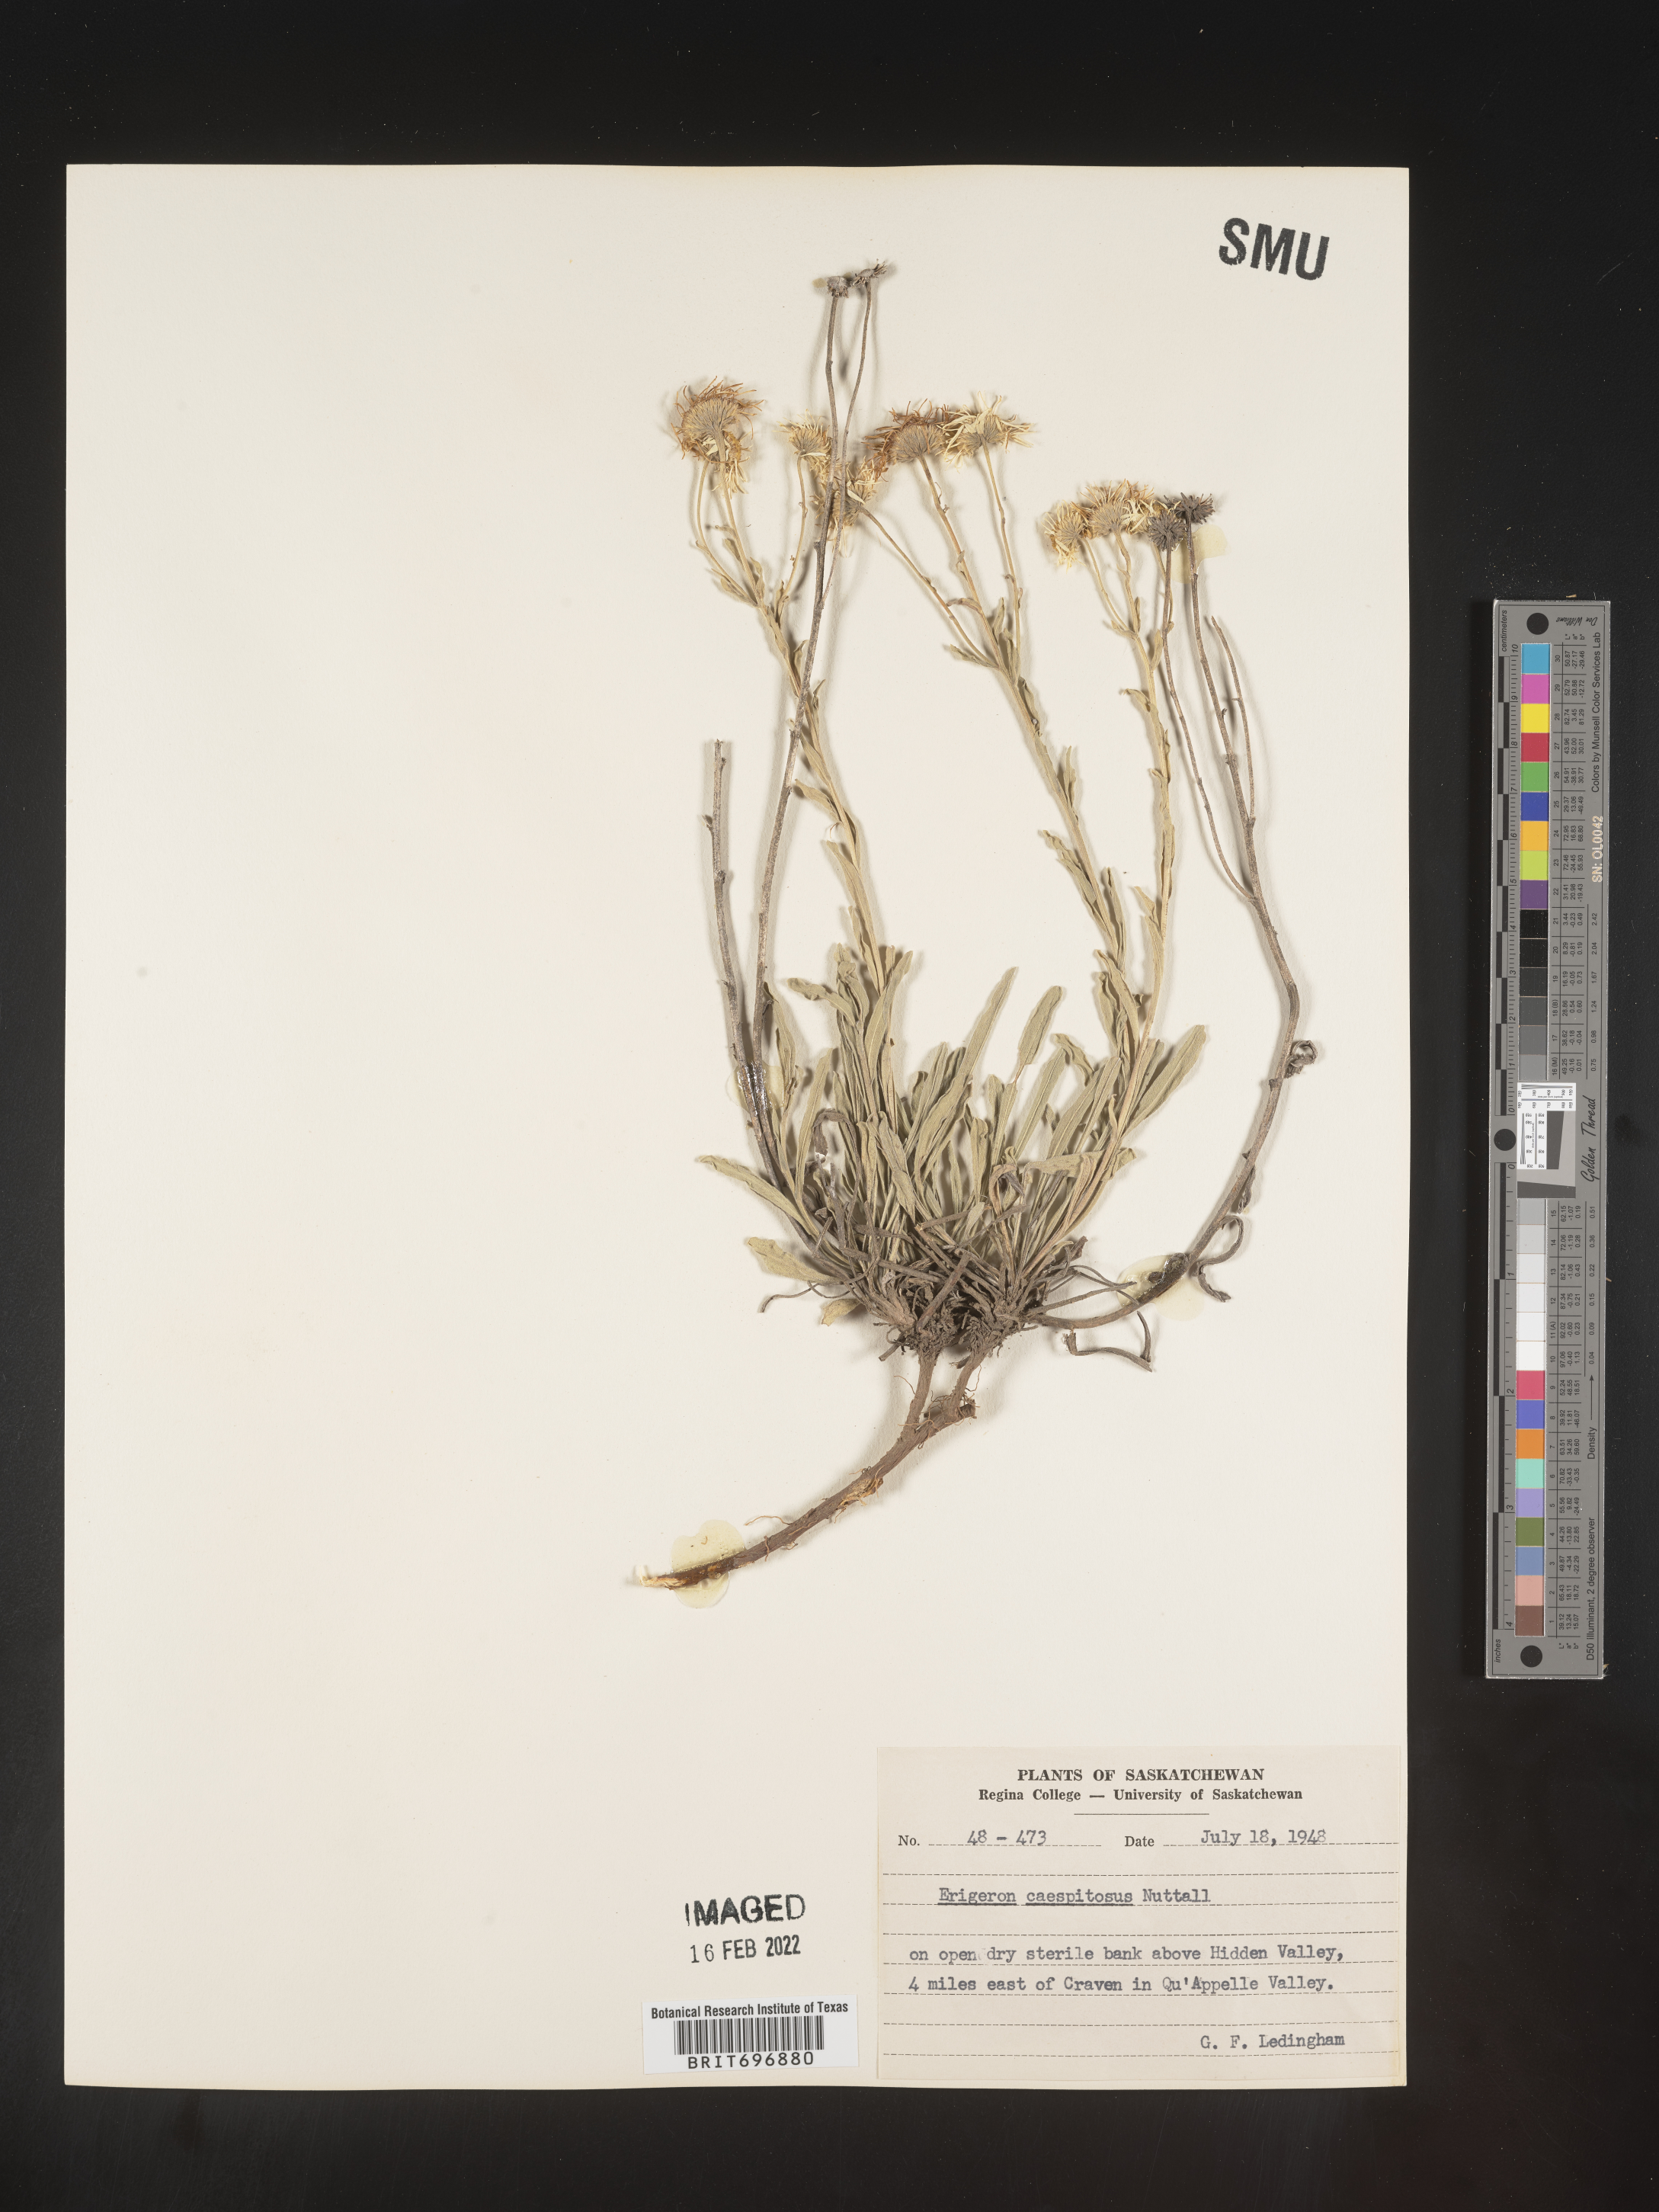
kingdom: Plantae
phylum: Tracheophyta
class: Magnoliopsida
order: Asterales
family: Asteraceae
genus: Erigeron
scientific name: Erigeron caespitosus
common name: Tufted fleabane
